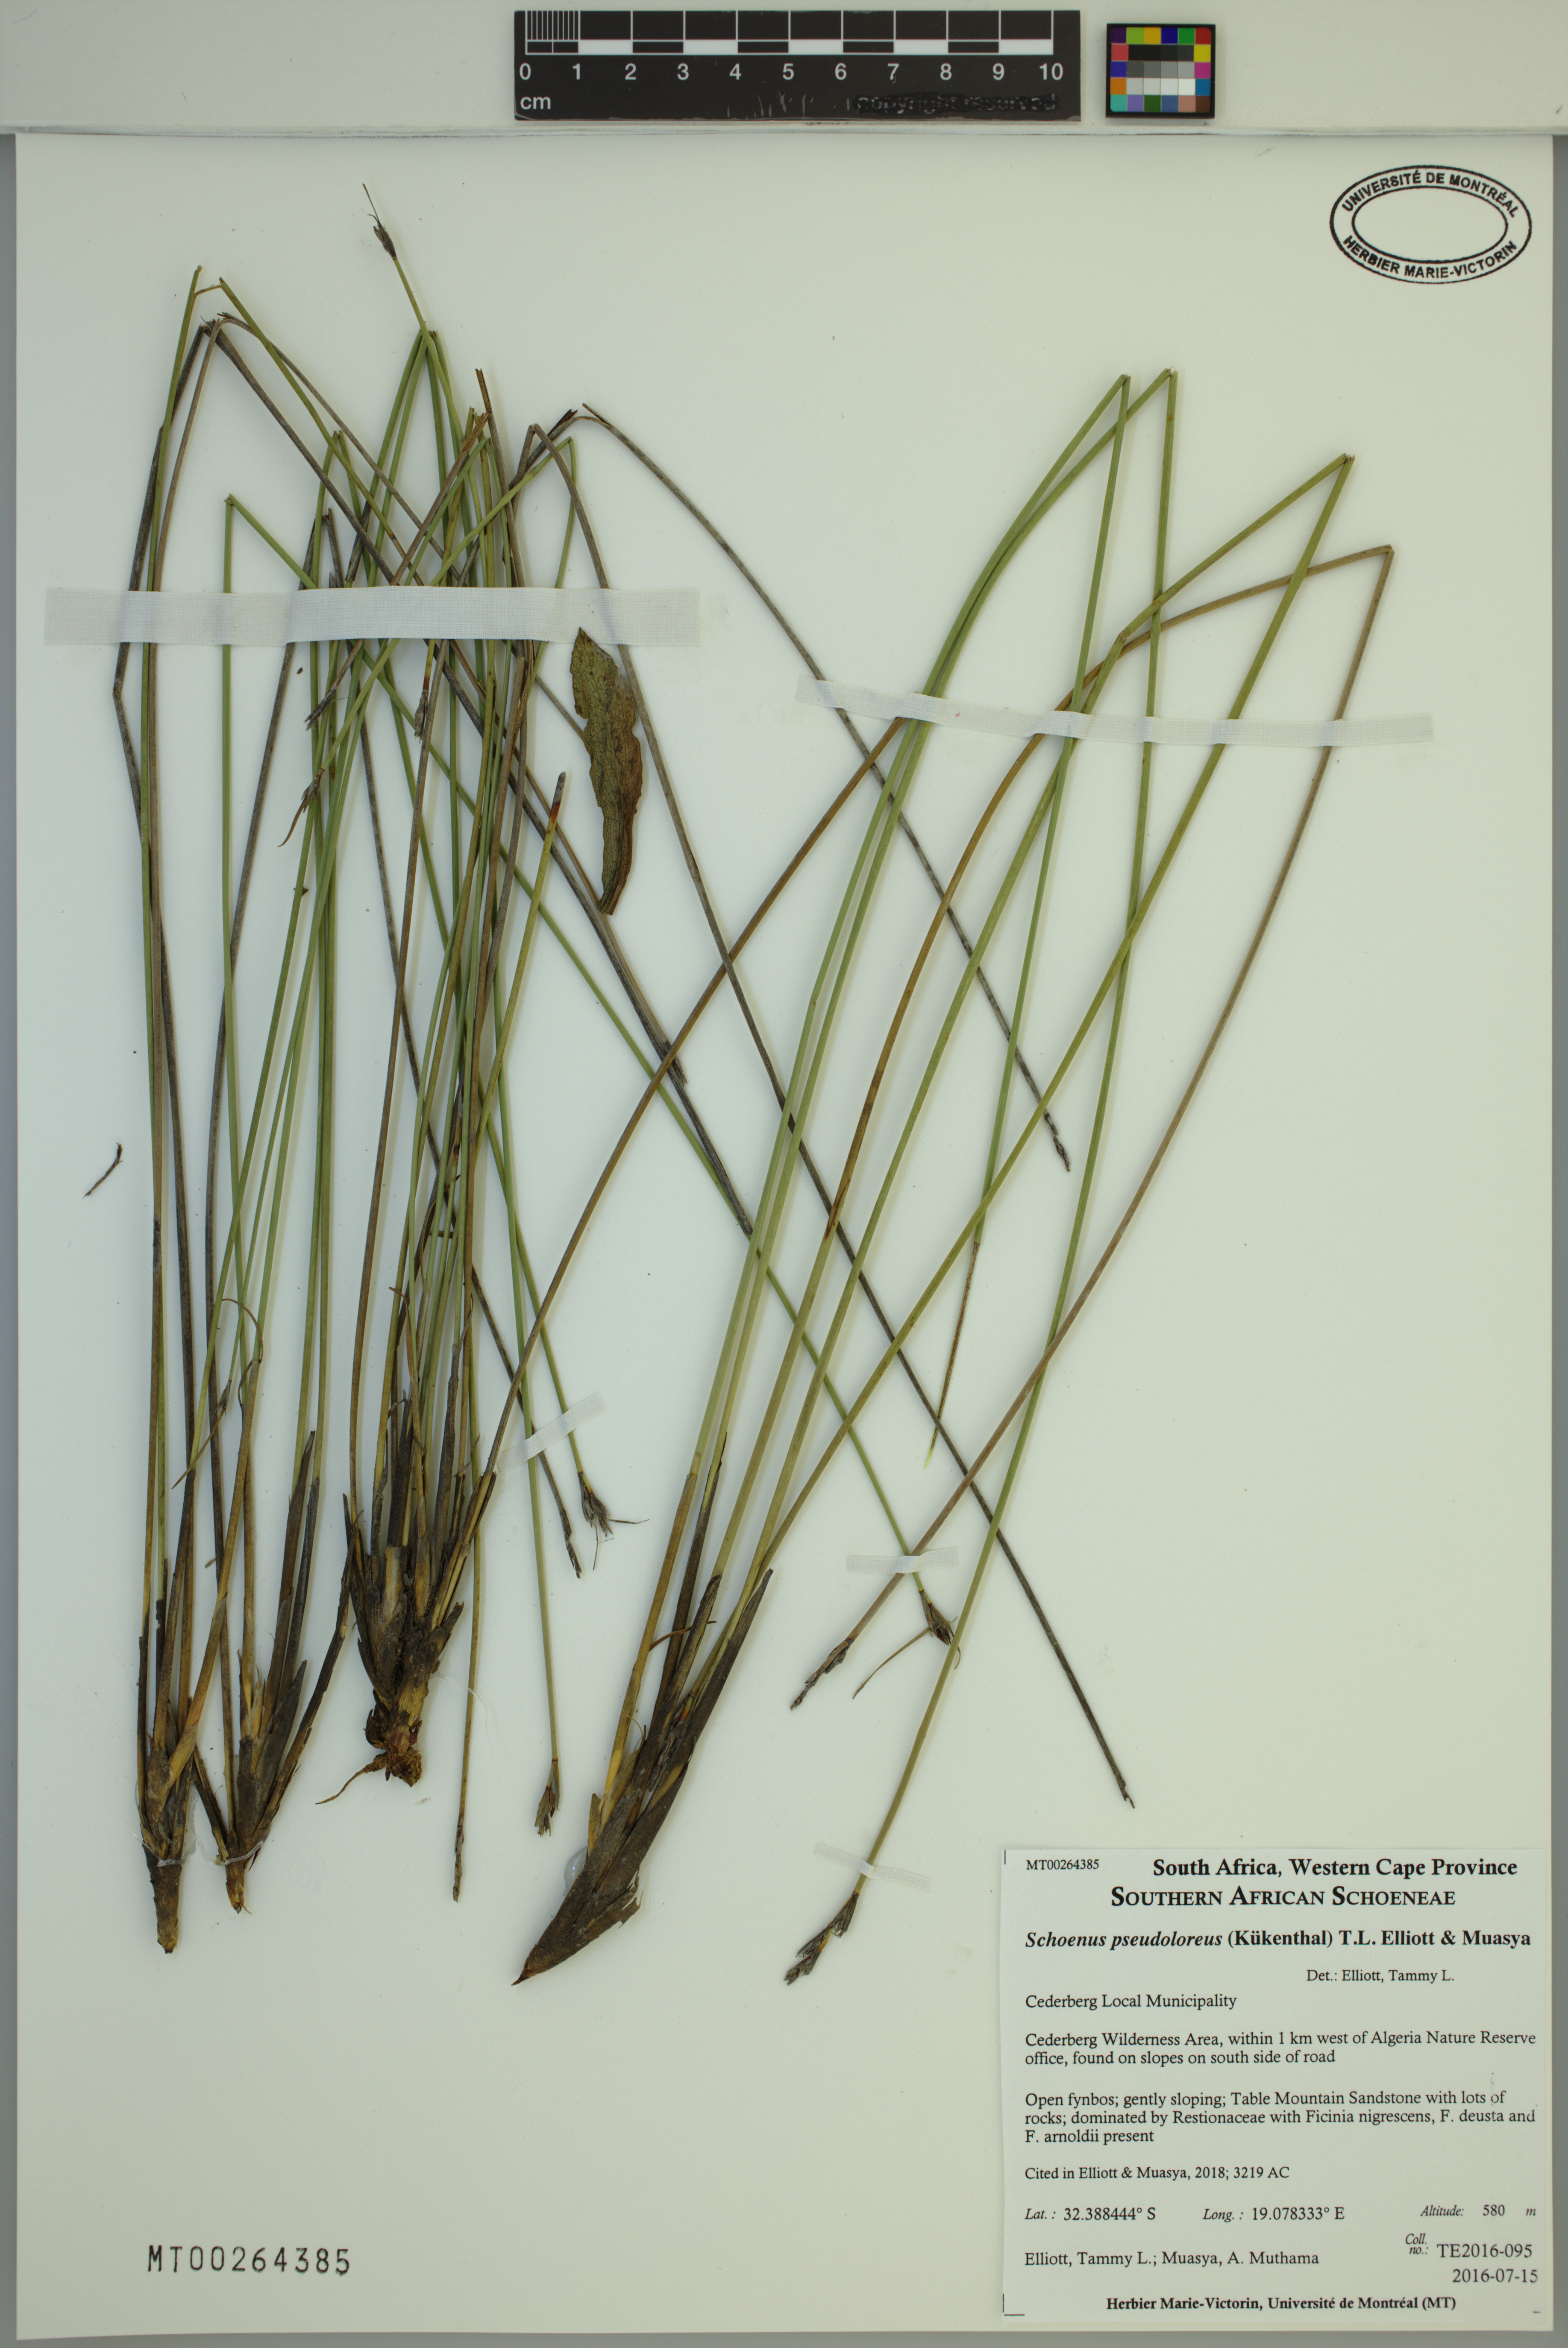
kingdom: Plantae
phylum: Tracheophyta
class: Liliopsida
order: Poales
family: Cyperaceae
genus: Schoenus
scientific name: Schoenus pseudoloreus
